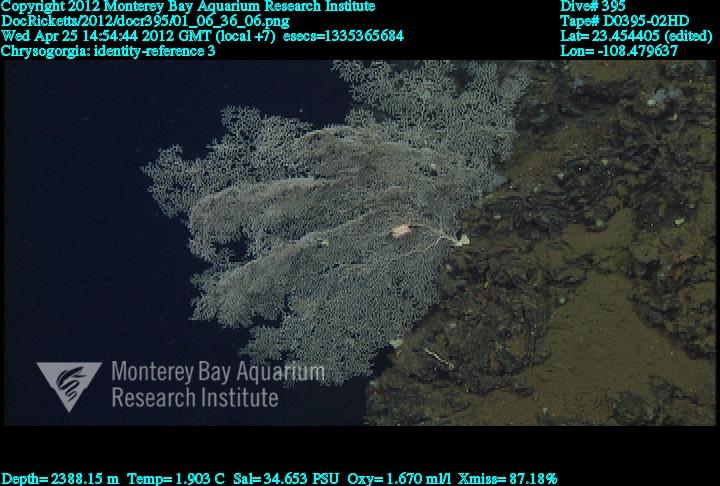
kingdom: Animalia
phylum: Cnidaria
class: Anthozoa
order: Scleralcyonacea
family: Chrysogorgiidae
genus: Chrysogorgia
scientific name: Chrysogorgia
